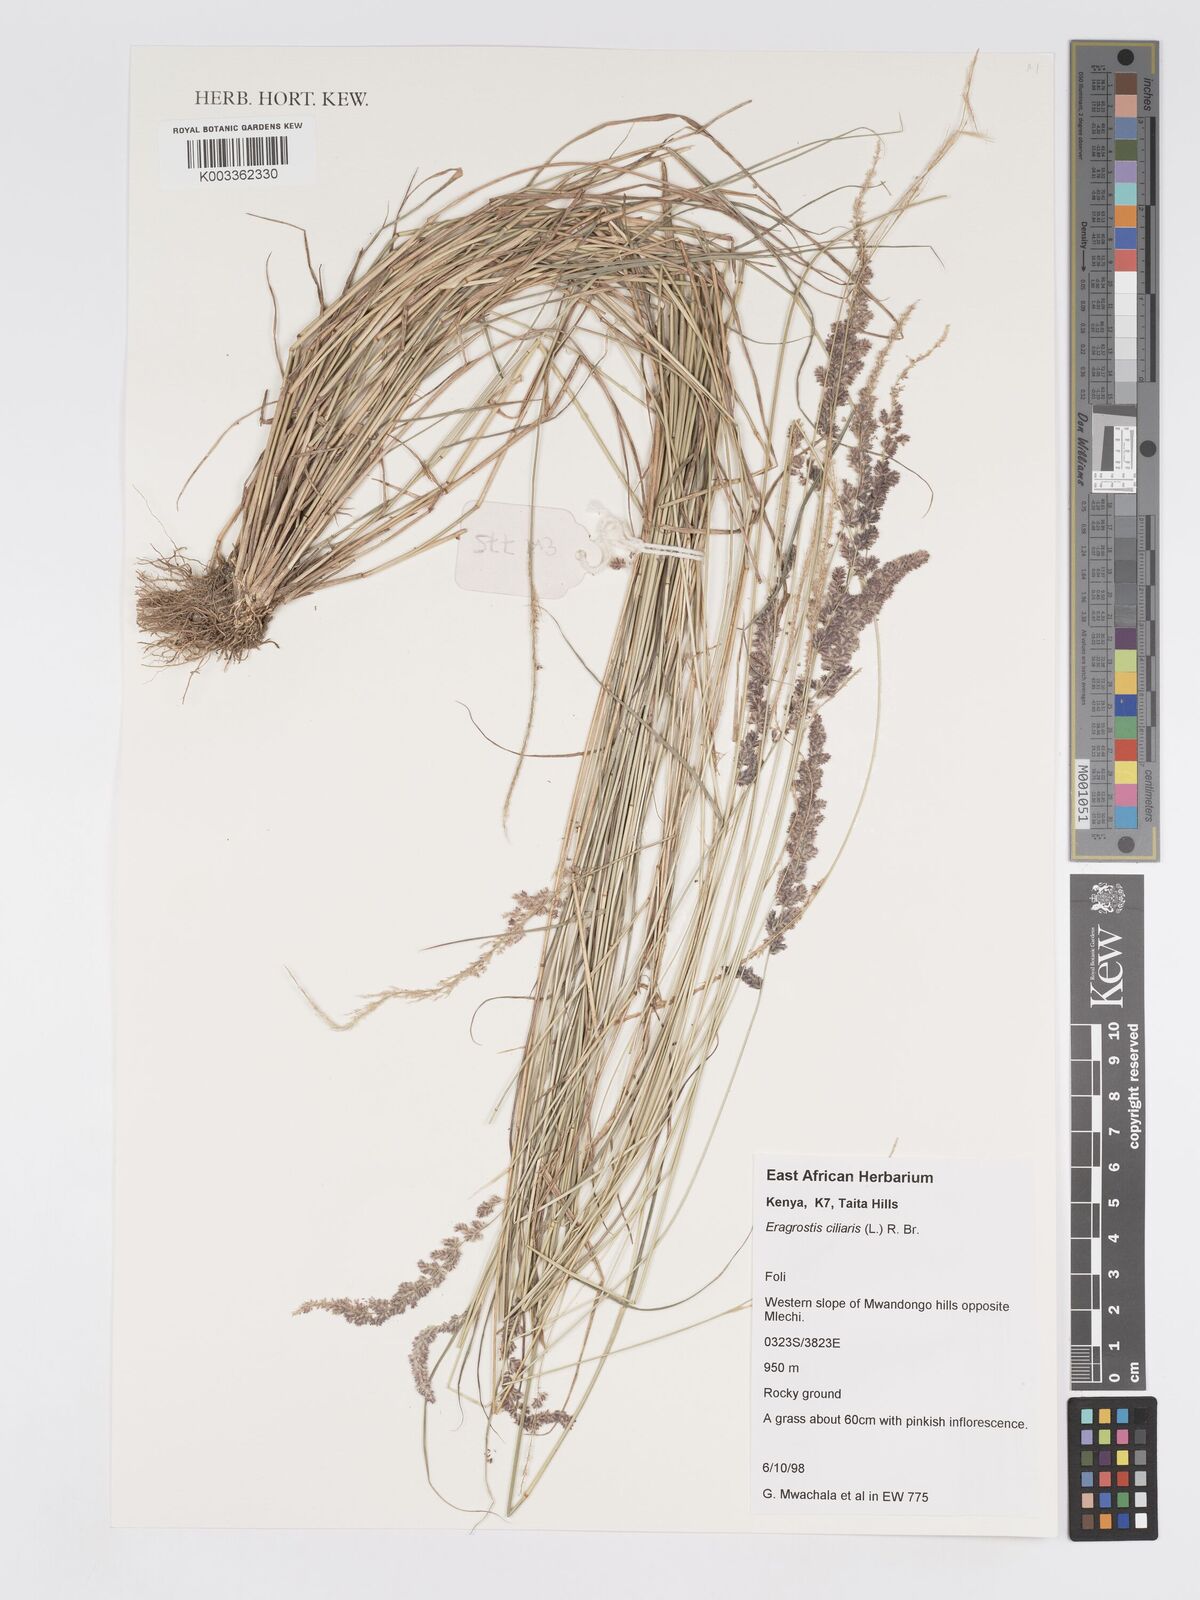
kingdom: Plantae
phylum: Tracheophyta
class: Liliopsida
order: Poales
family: Poaceae
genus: Eragrostis
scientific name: Eragrostis ciliaris
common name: Gophertail lovegrass
